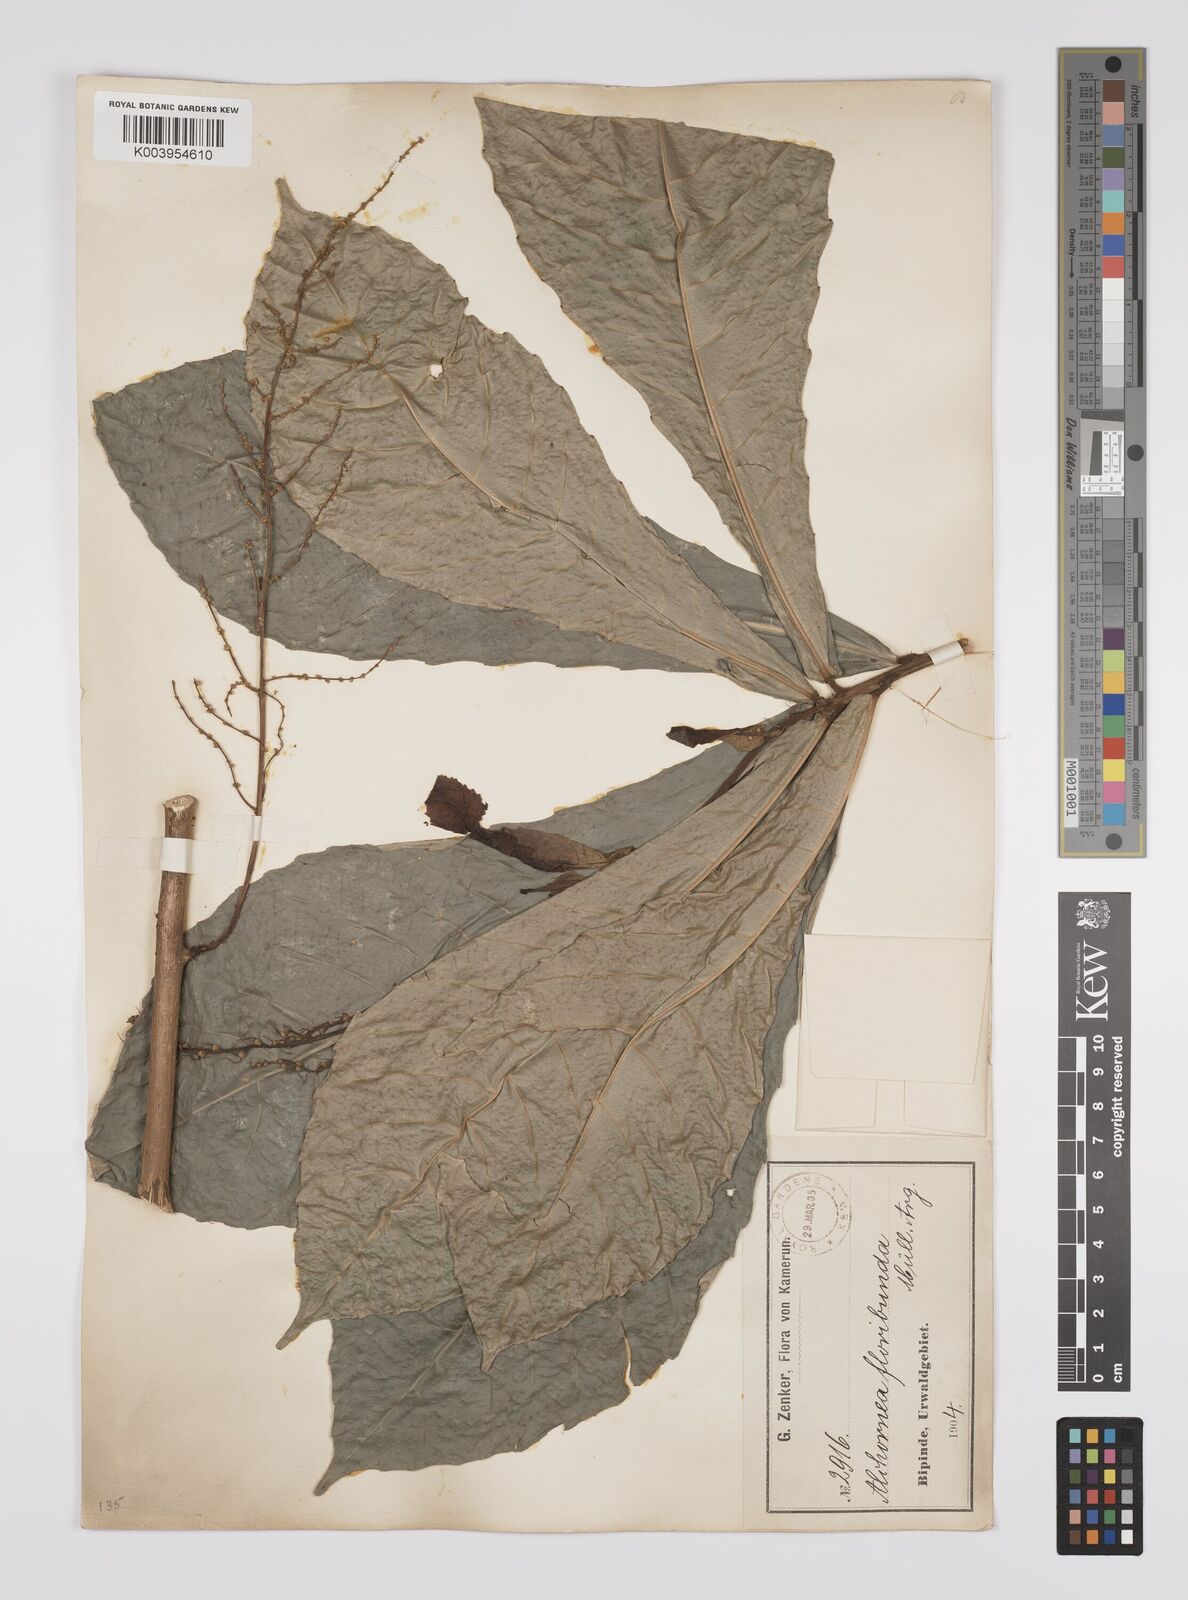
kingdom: Plantae
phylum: Tracheophyta
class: Magnoliopsida
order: Malpighiales
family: Euphorbiaceae
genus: Alchornea
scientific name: Alchornea floribunda
